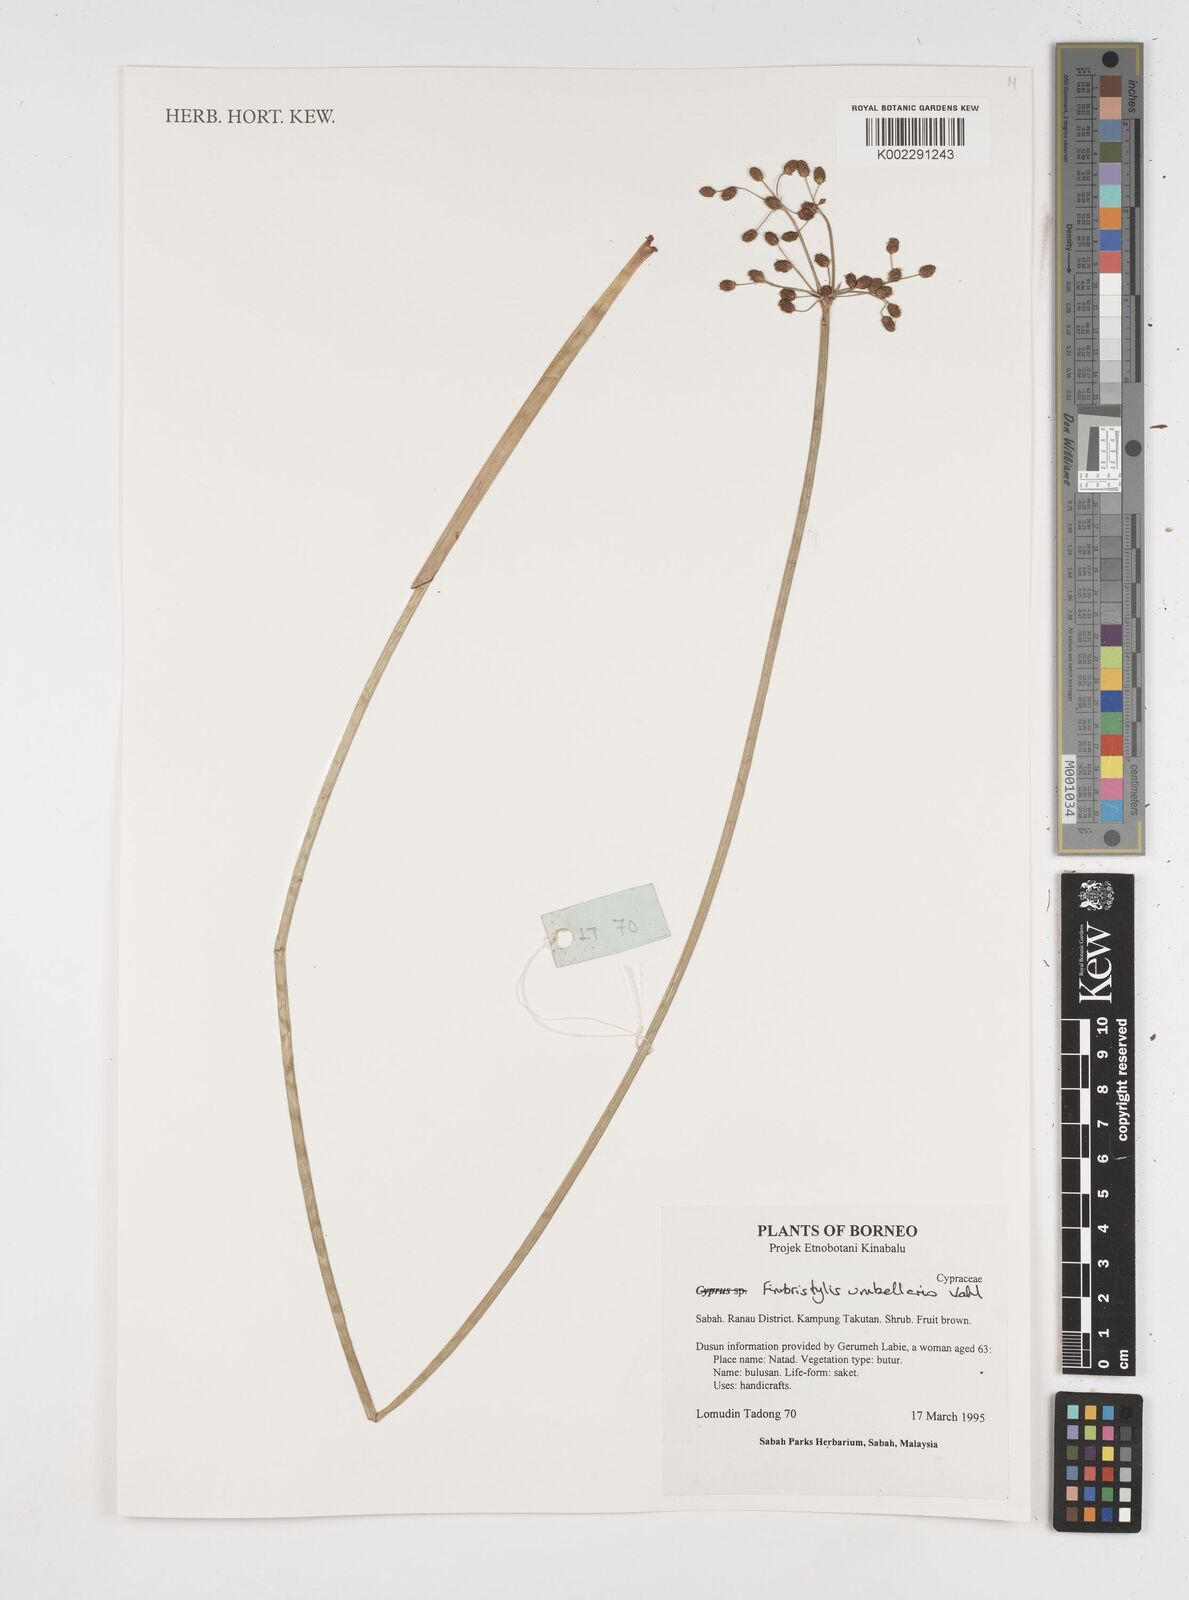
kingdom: Plantae
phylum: Tracheophyta
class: Liliopsida
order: Poales
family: Cyperaceae
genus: Fimbristylis
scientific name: Fimbristylis umbellaris
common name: Globular fimbristylis
